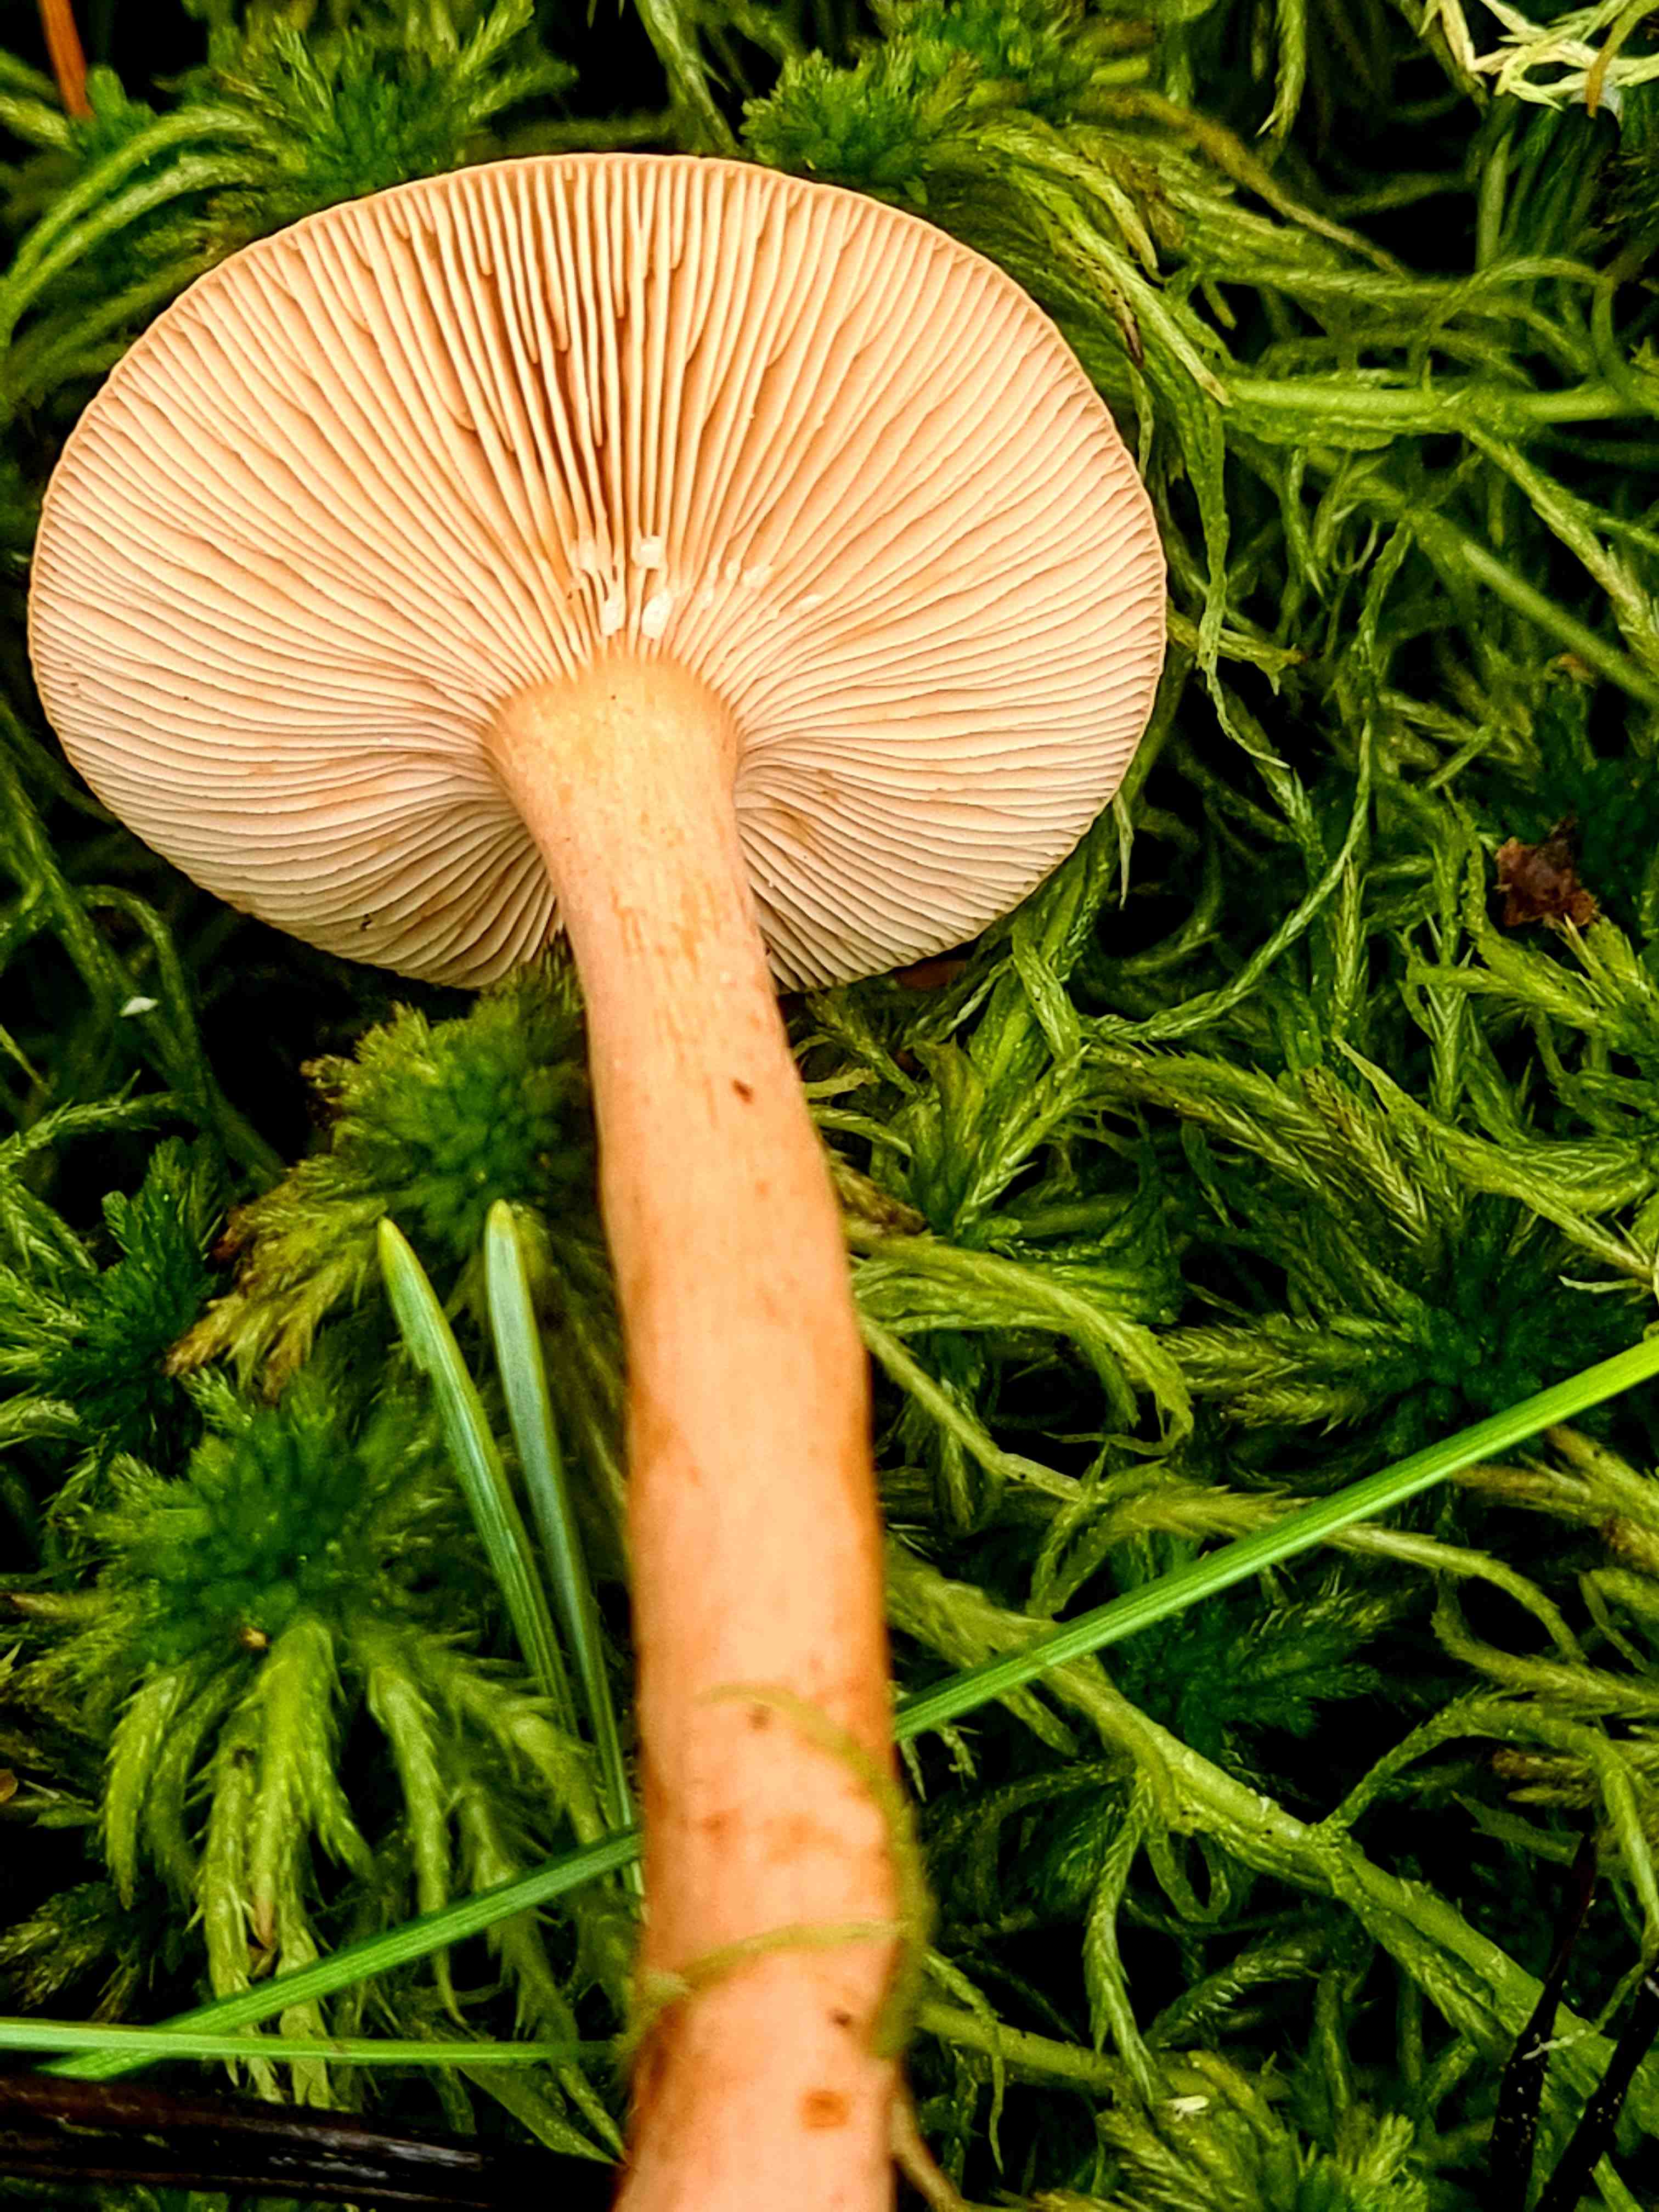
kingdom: Fungi
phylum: Basidiomycota
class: Agaricomycetes
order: Russulales
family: Russulaceae
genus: Lactarius
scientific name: Lactarius
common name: mælkehat
